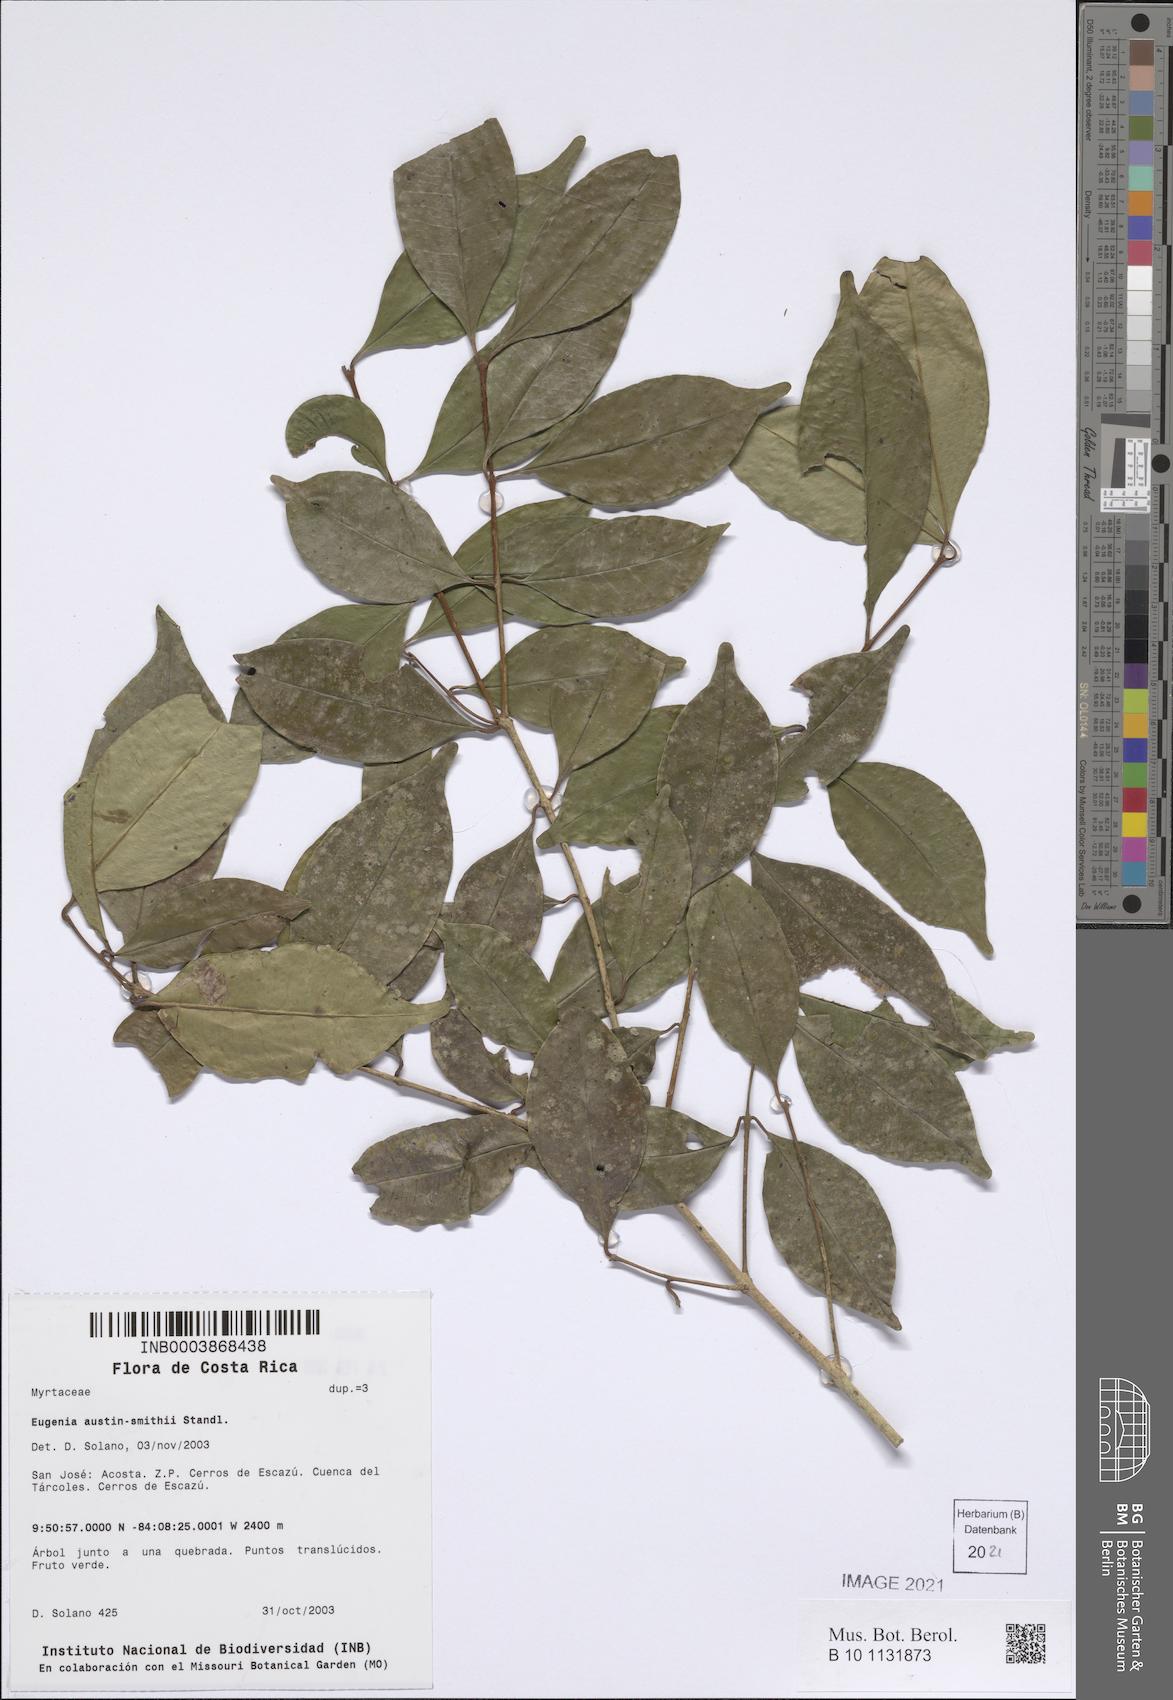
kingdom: Plantae
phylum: Tracheophyta
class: Magnoliopsida
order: Myrtales
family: Myrtaceae
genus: Eugenia
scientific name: Eugenia austin-smithii
